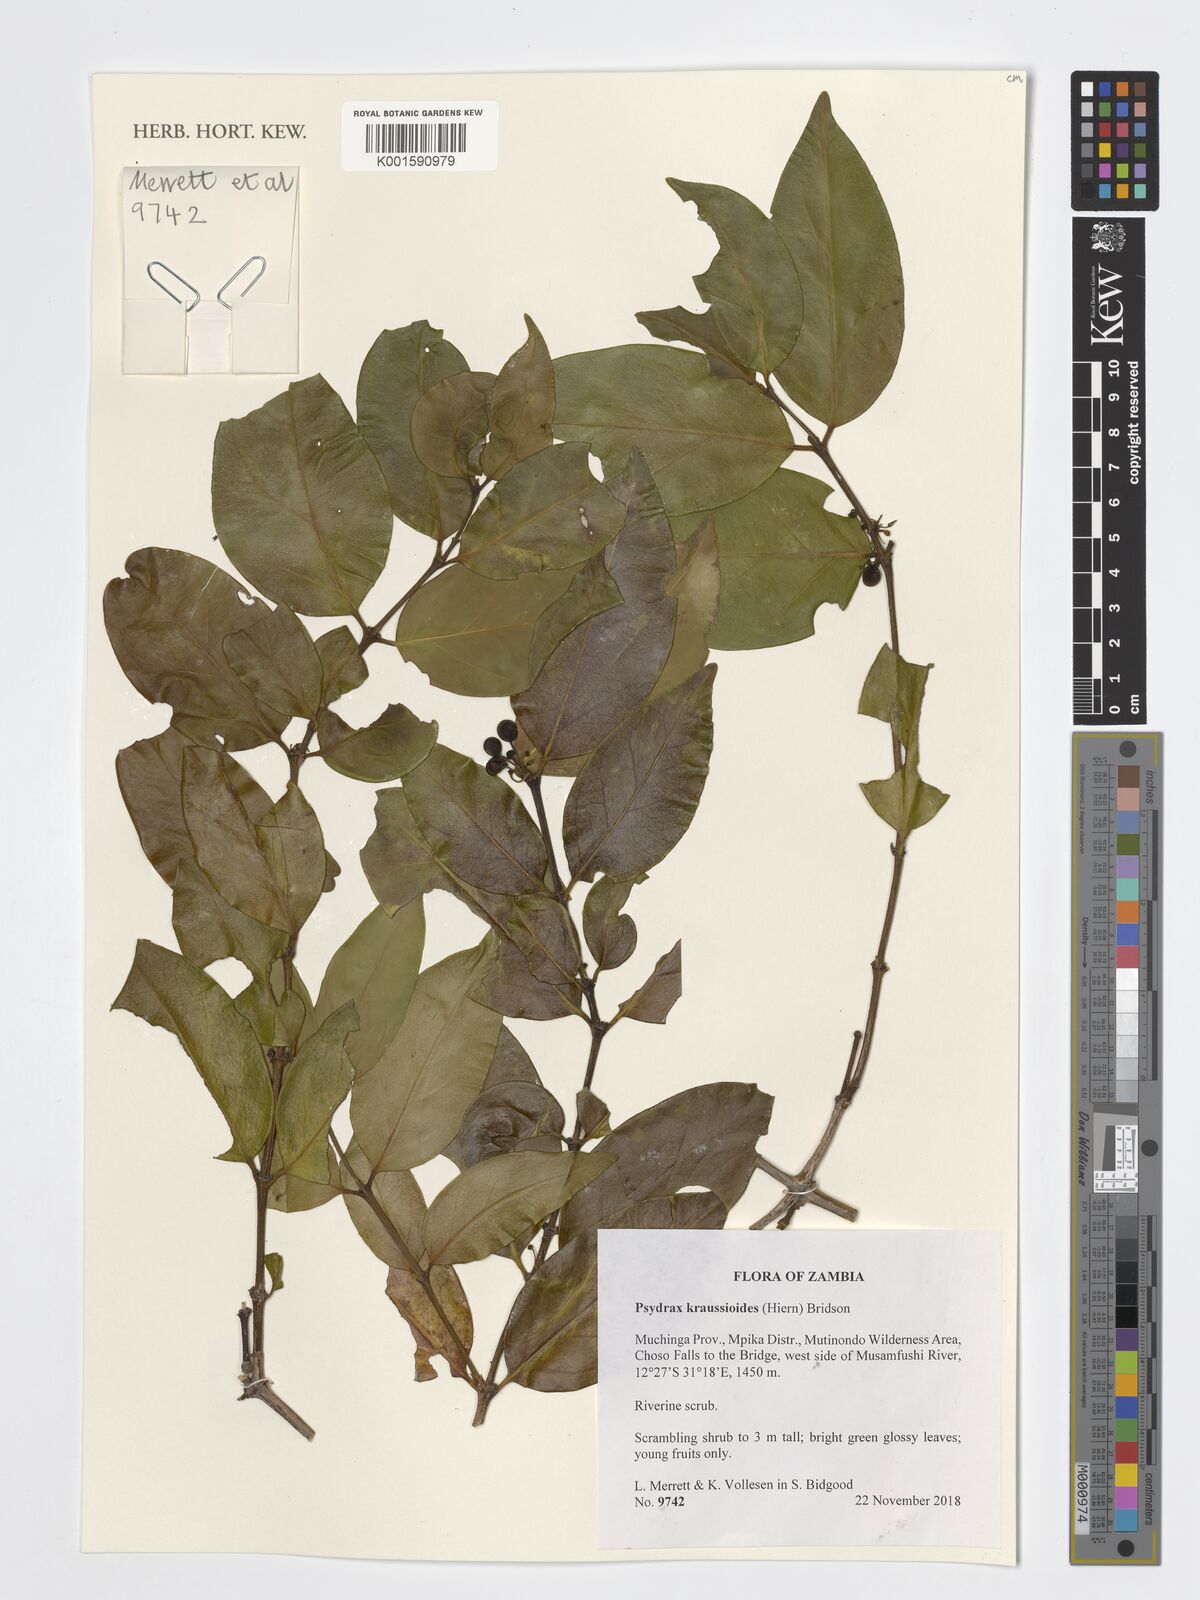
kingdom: Plantae
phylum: Tracheophyta
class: Magnoliopsida
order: Gentianales
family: Rubiaceae
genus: Psydrax
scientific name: Psydrax kraussioides
